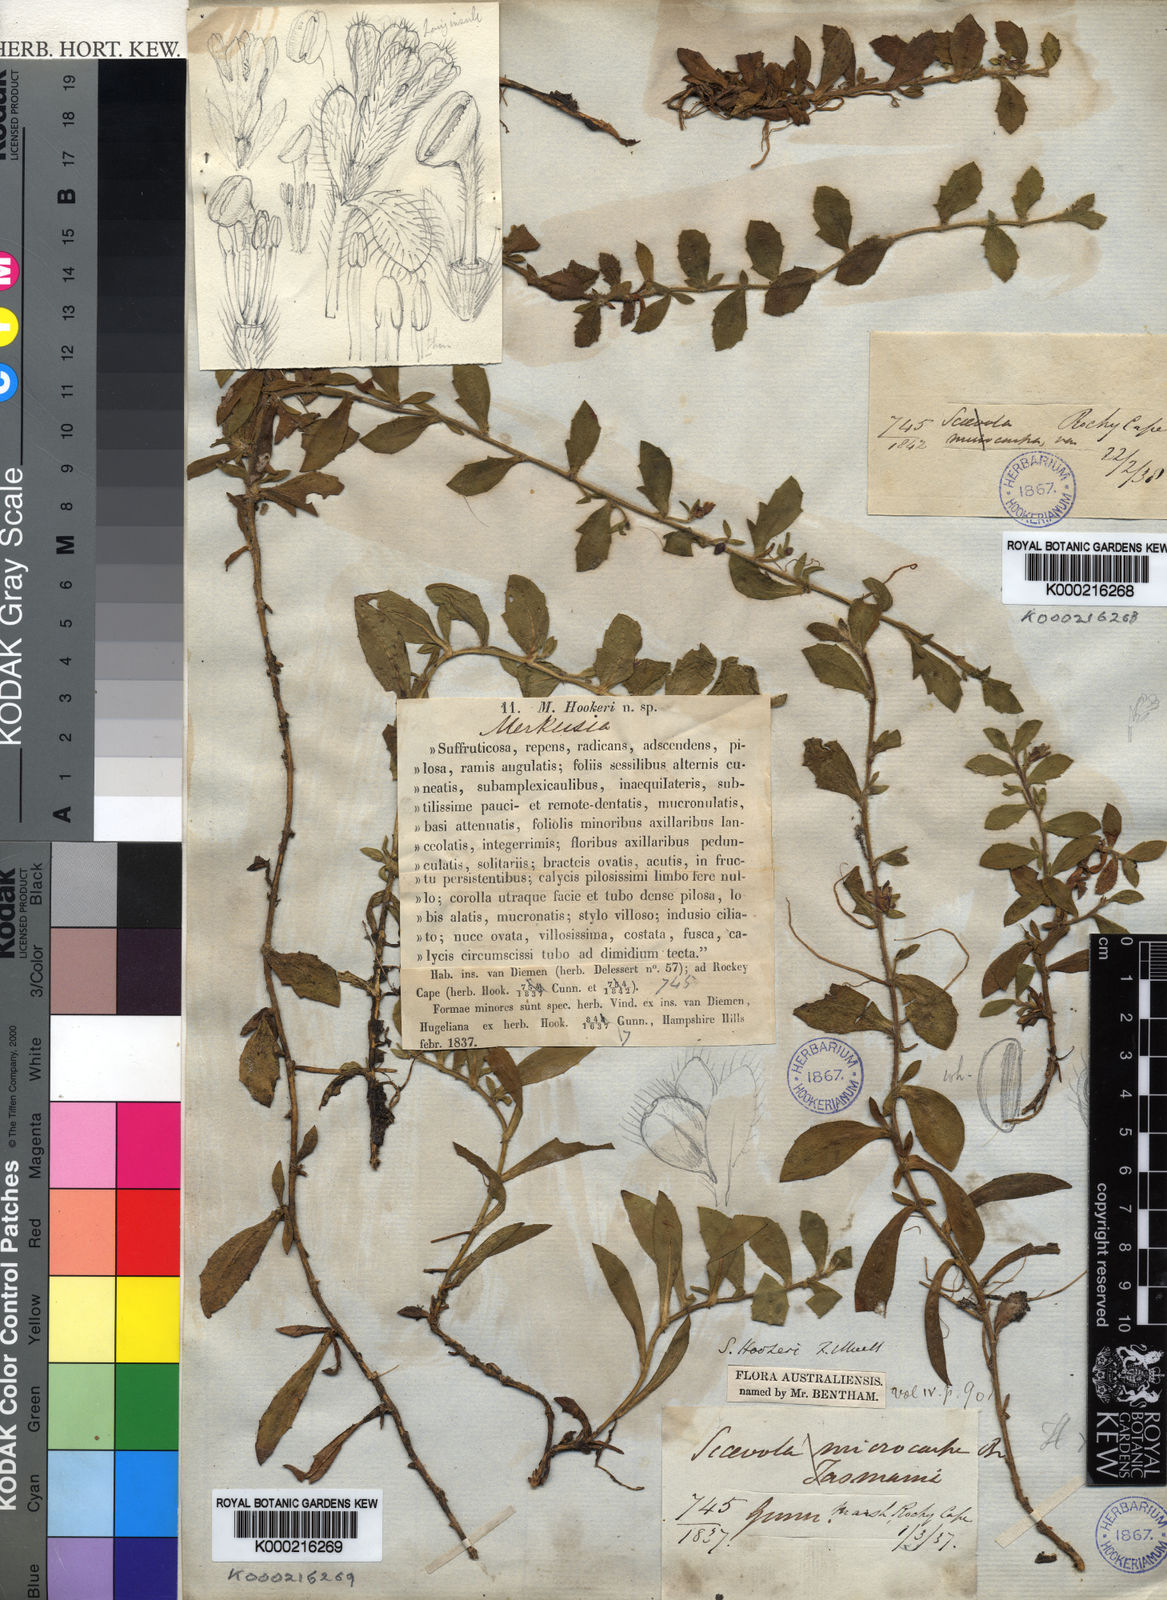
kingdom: Plantae
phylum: Tracheophyta
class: Magnoliopsida
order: Asterales
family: Goodeniaceae
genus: Scaevola
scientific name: Scaevola hookeri
